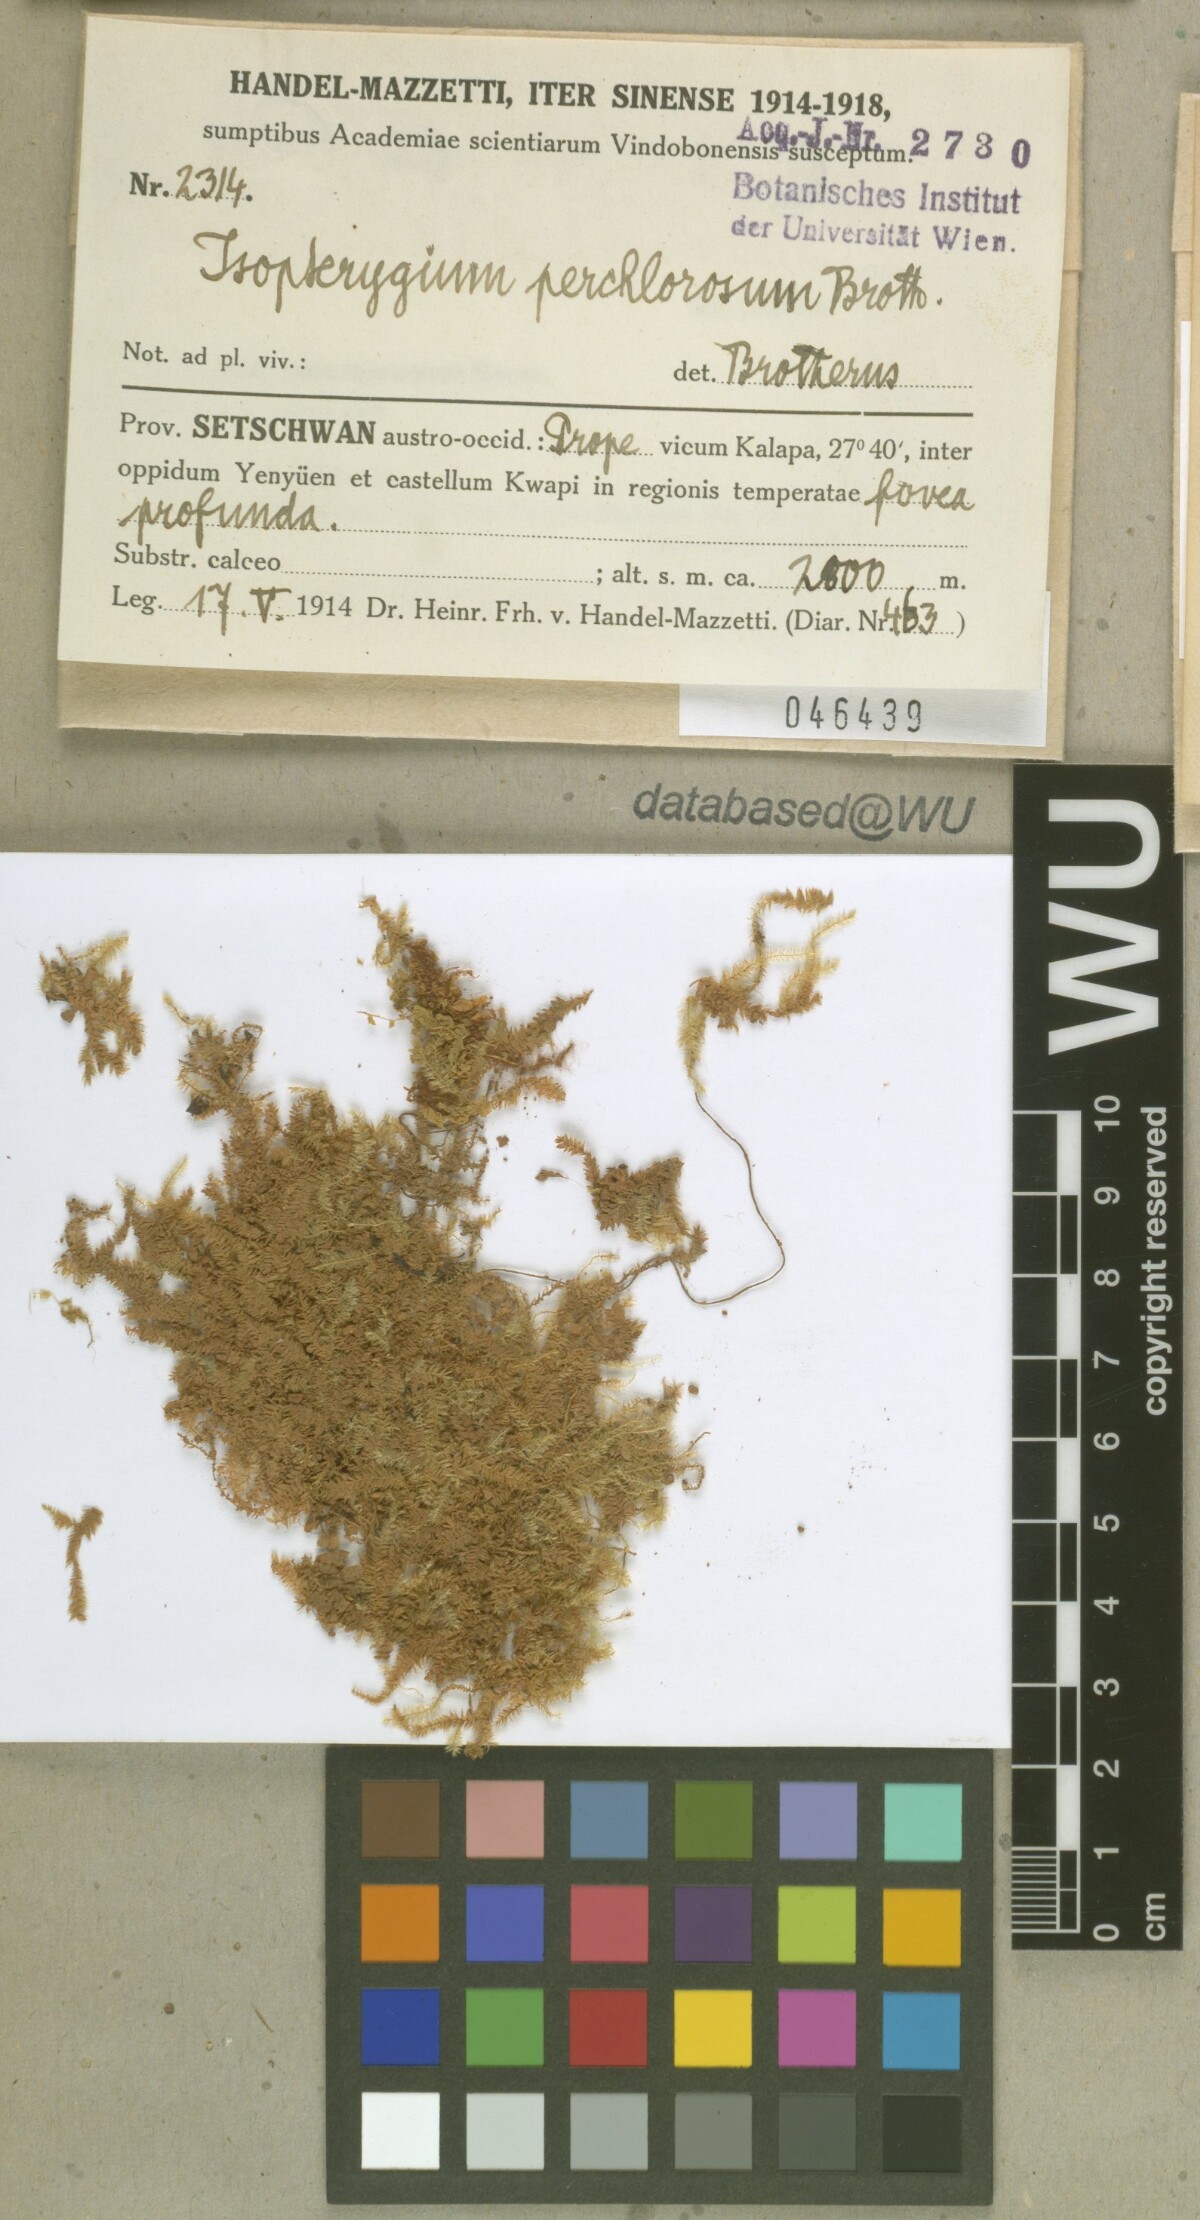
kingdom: Plantae
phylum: Bryophyta
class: Bryopsida
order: Hypnales
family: Plagiotheciaceae
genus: Pseudotaxiphyllum
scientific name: Pseudotaxiphyllum pohliicarpum
